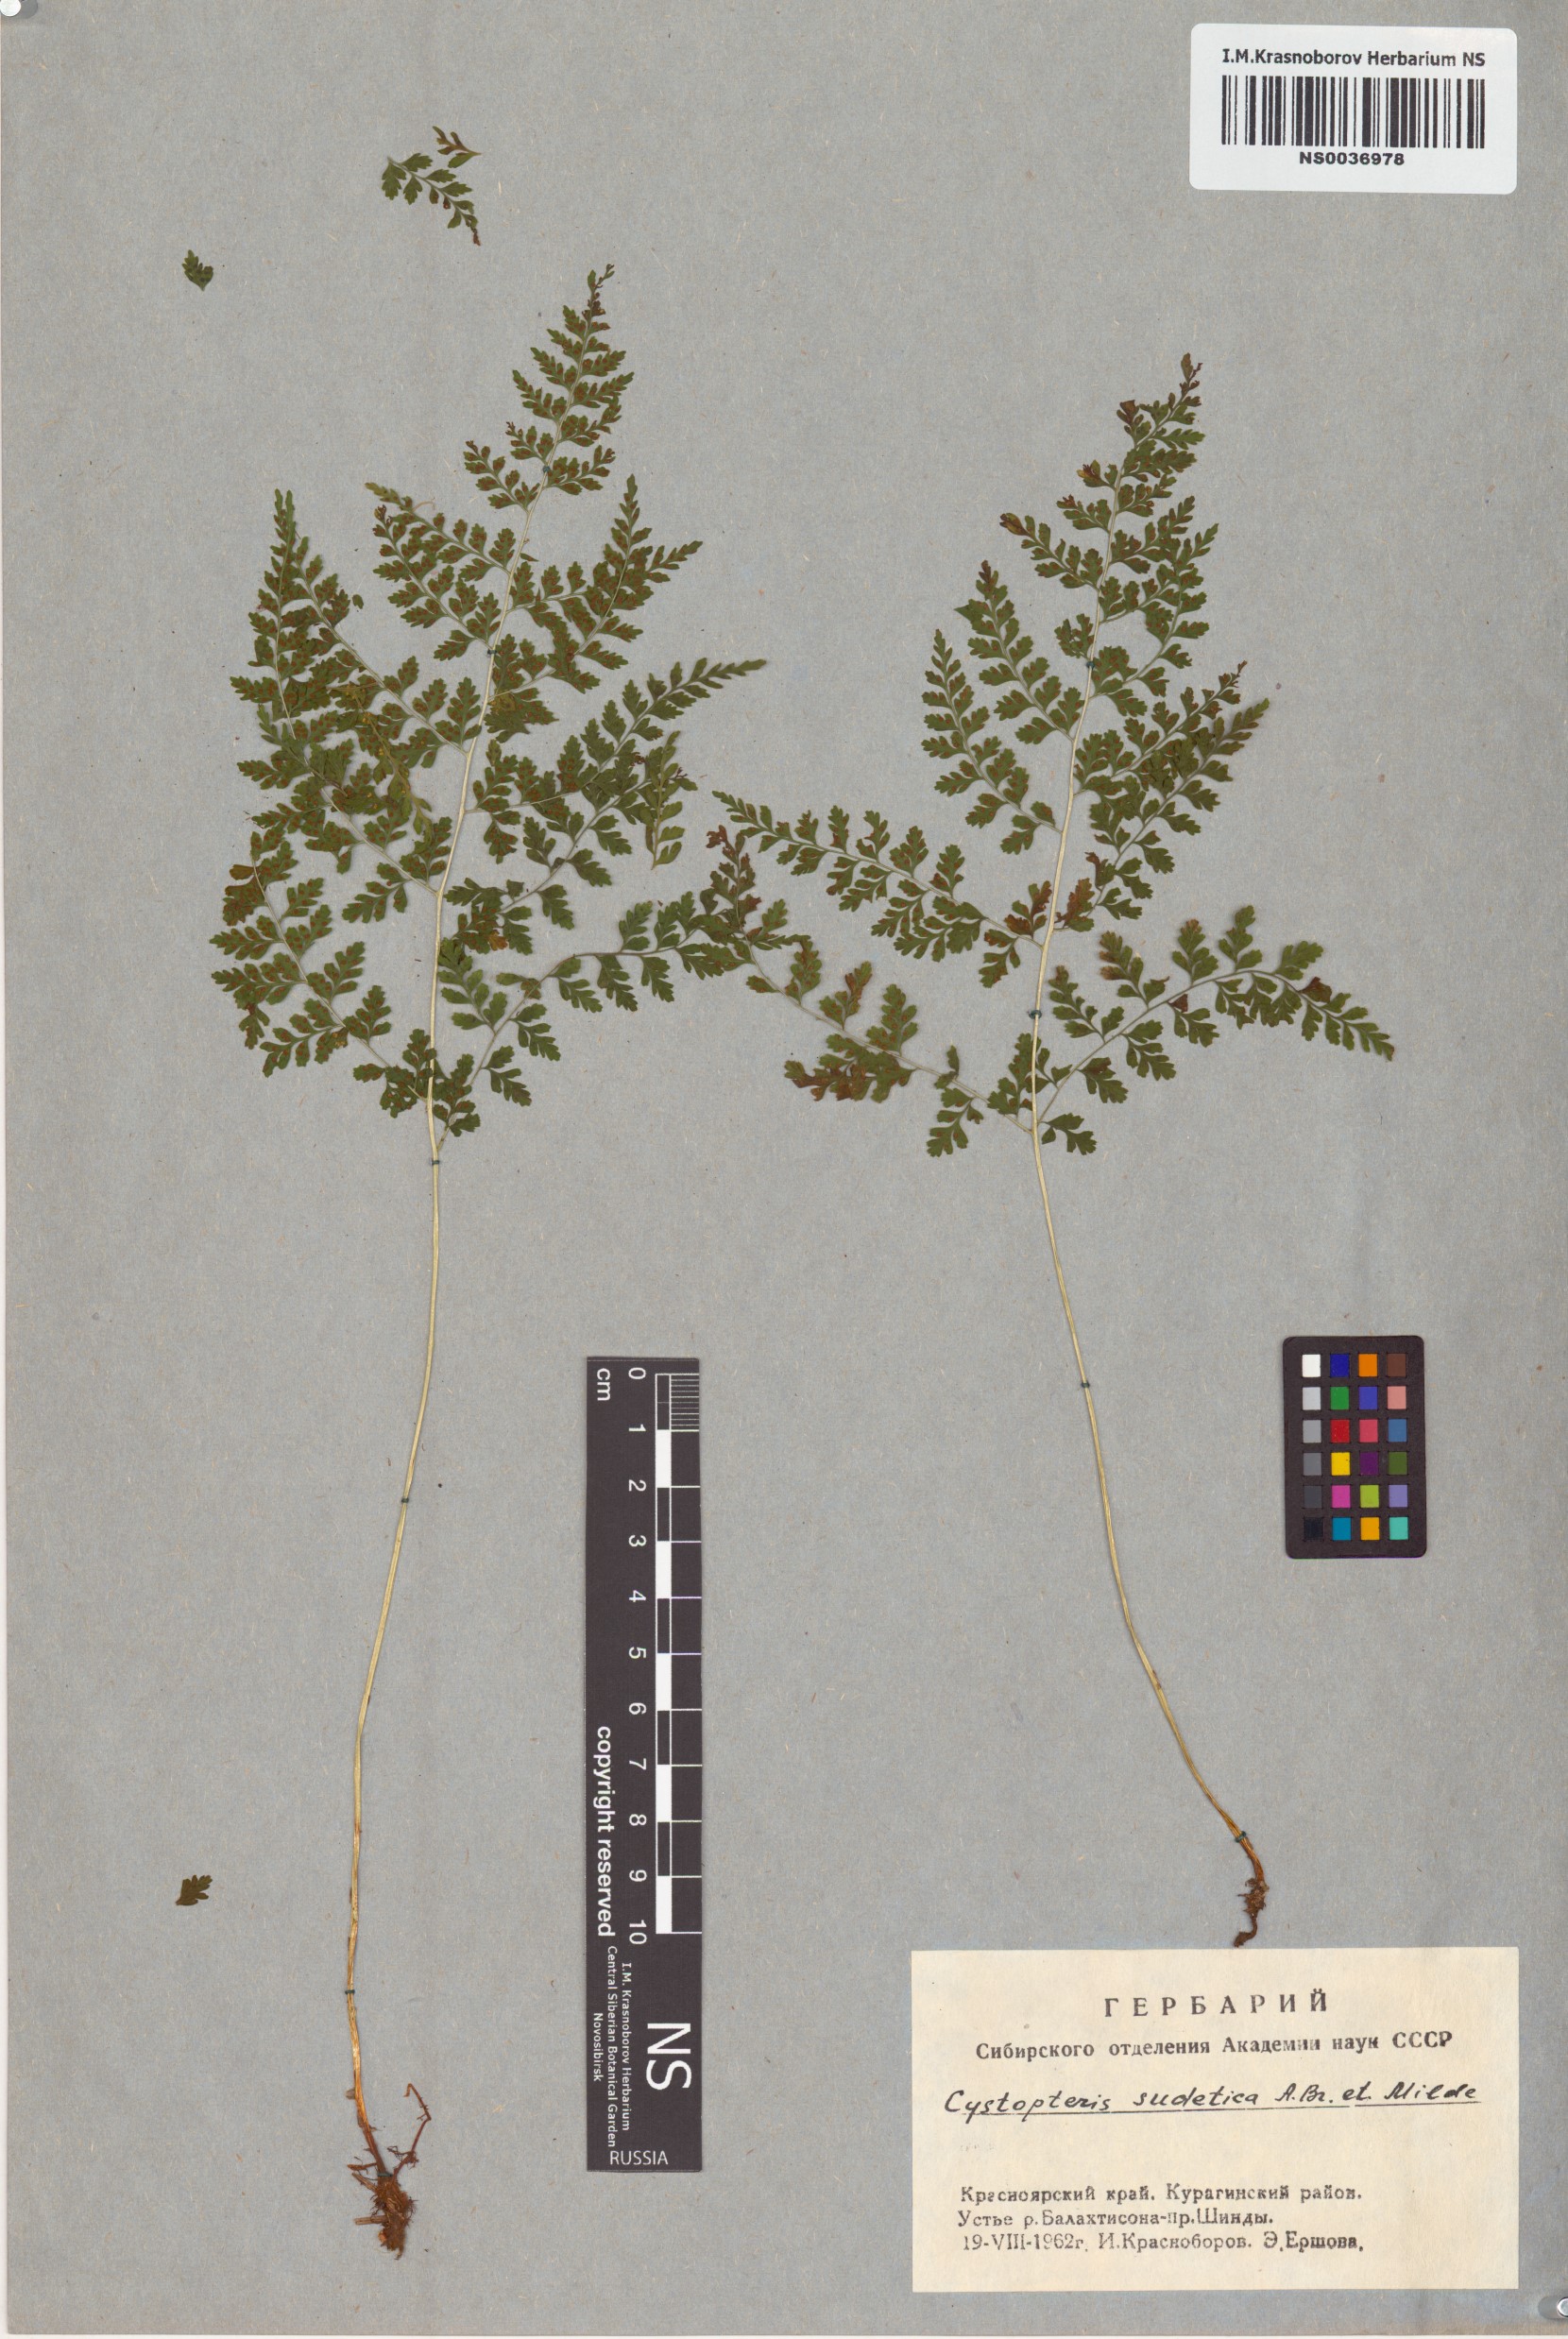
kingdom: Plantae
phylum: Tracheophyta
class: Polypodiopsida
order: Polypodiales
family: Cystopteridaceae
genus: Cystopteris
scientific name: Cystopteris sudetica
